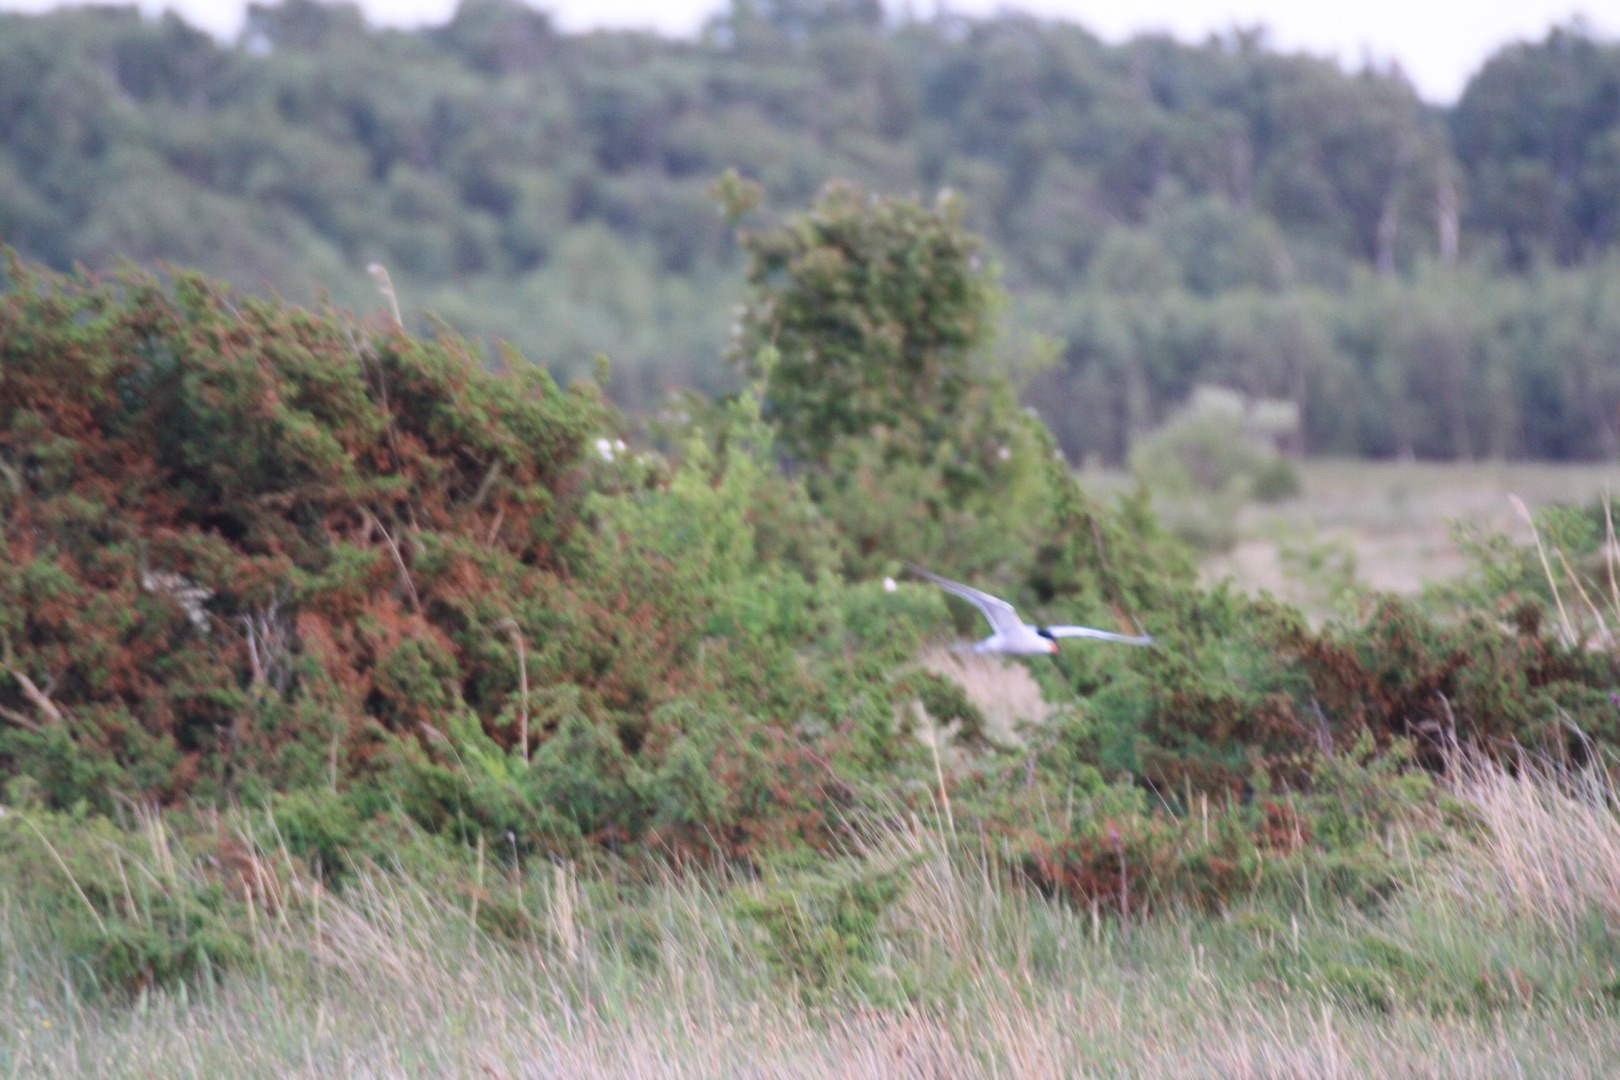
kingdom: Animalia
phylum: Chordata
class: Aves
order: Charadriiformes
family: Laridae
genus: Sterna
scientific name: Sterna hirundo
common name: Fjordterne
